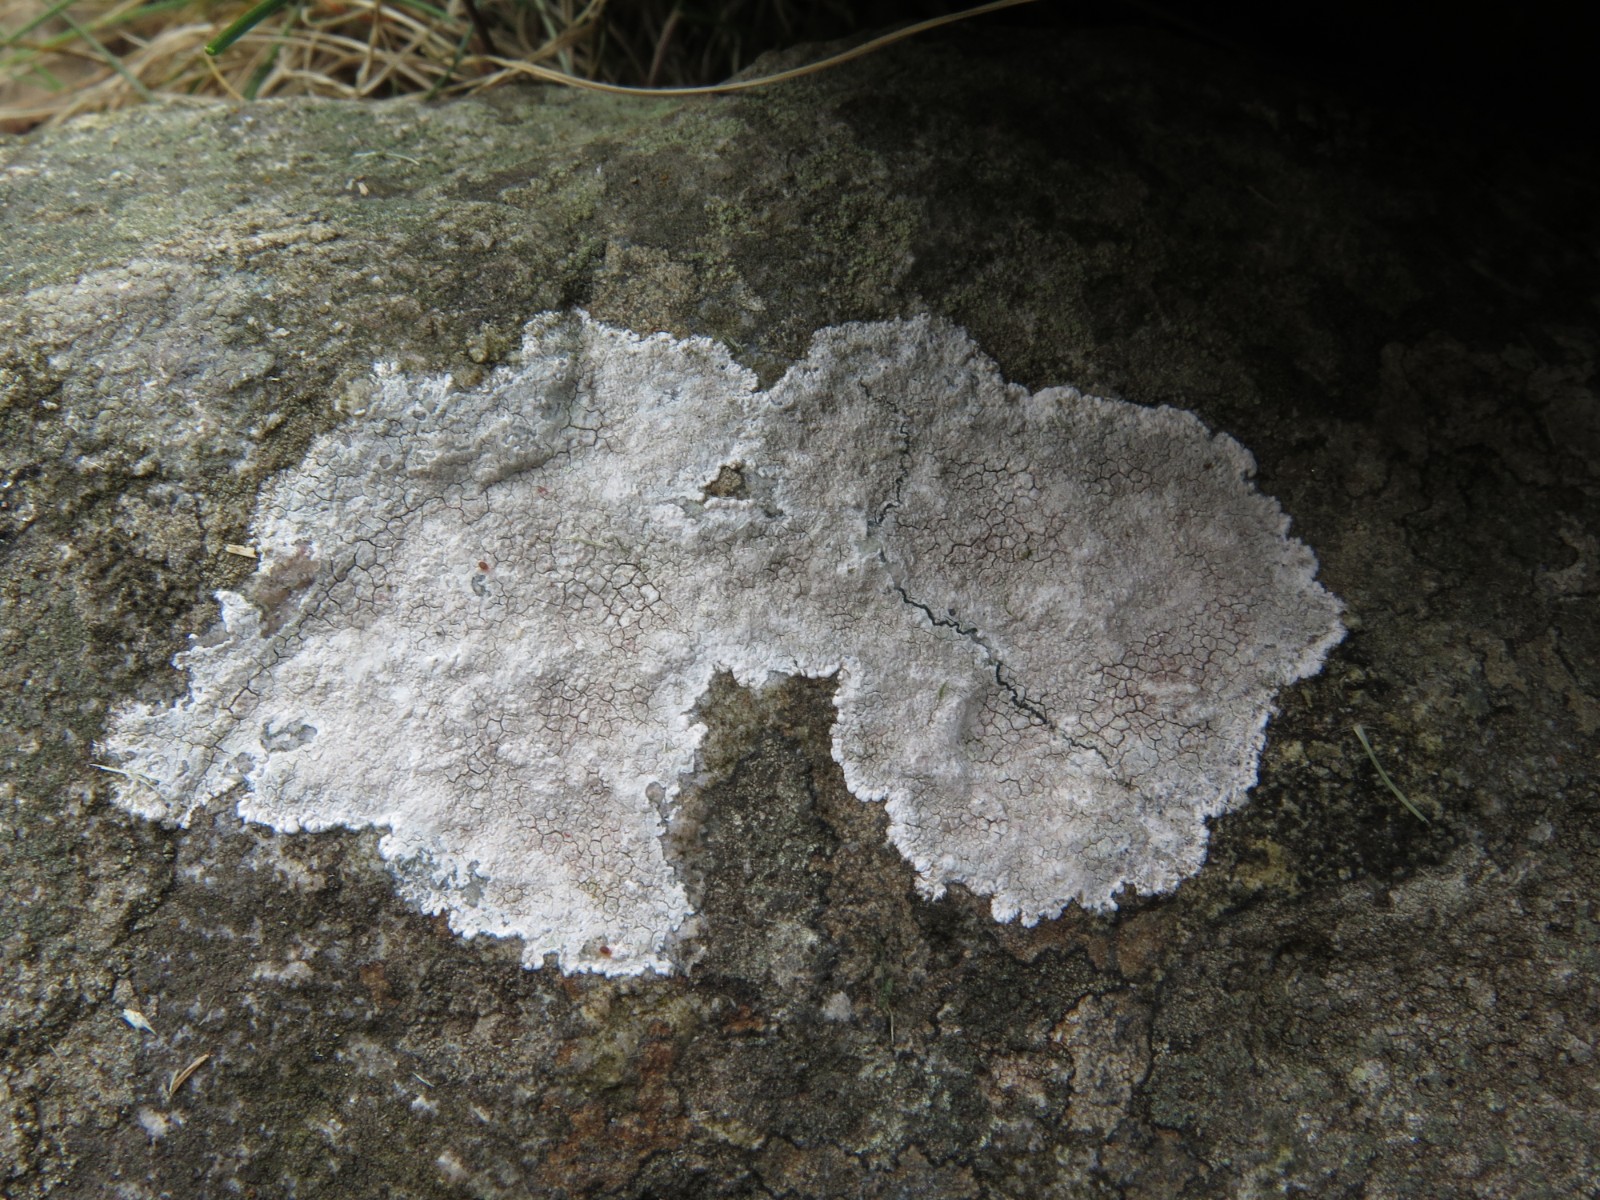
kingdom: Fungi
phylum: Ascomycota
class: Lecanoromycetes
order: Lecanorales
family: Lecanoraceae
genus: Glaucomaria
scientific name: Glaucomaria rupicola
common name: stengærde-kantskivelav
